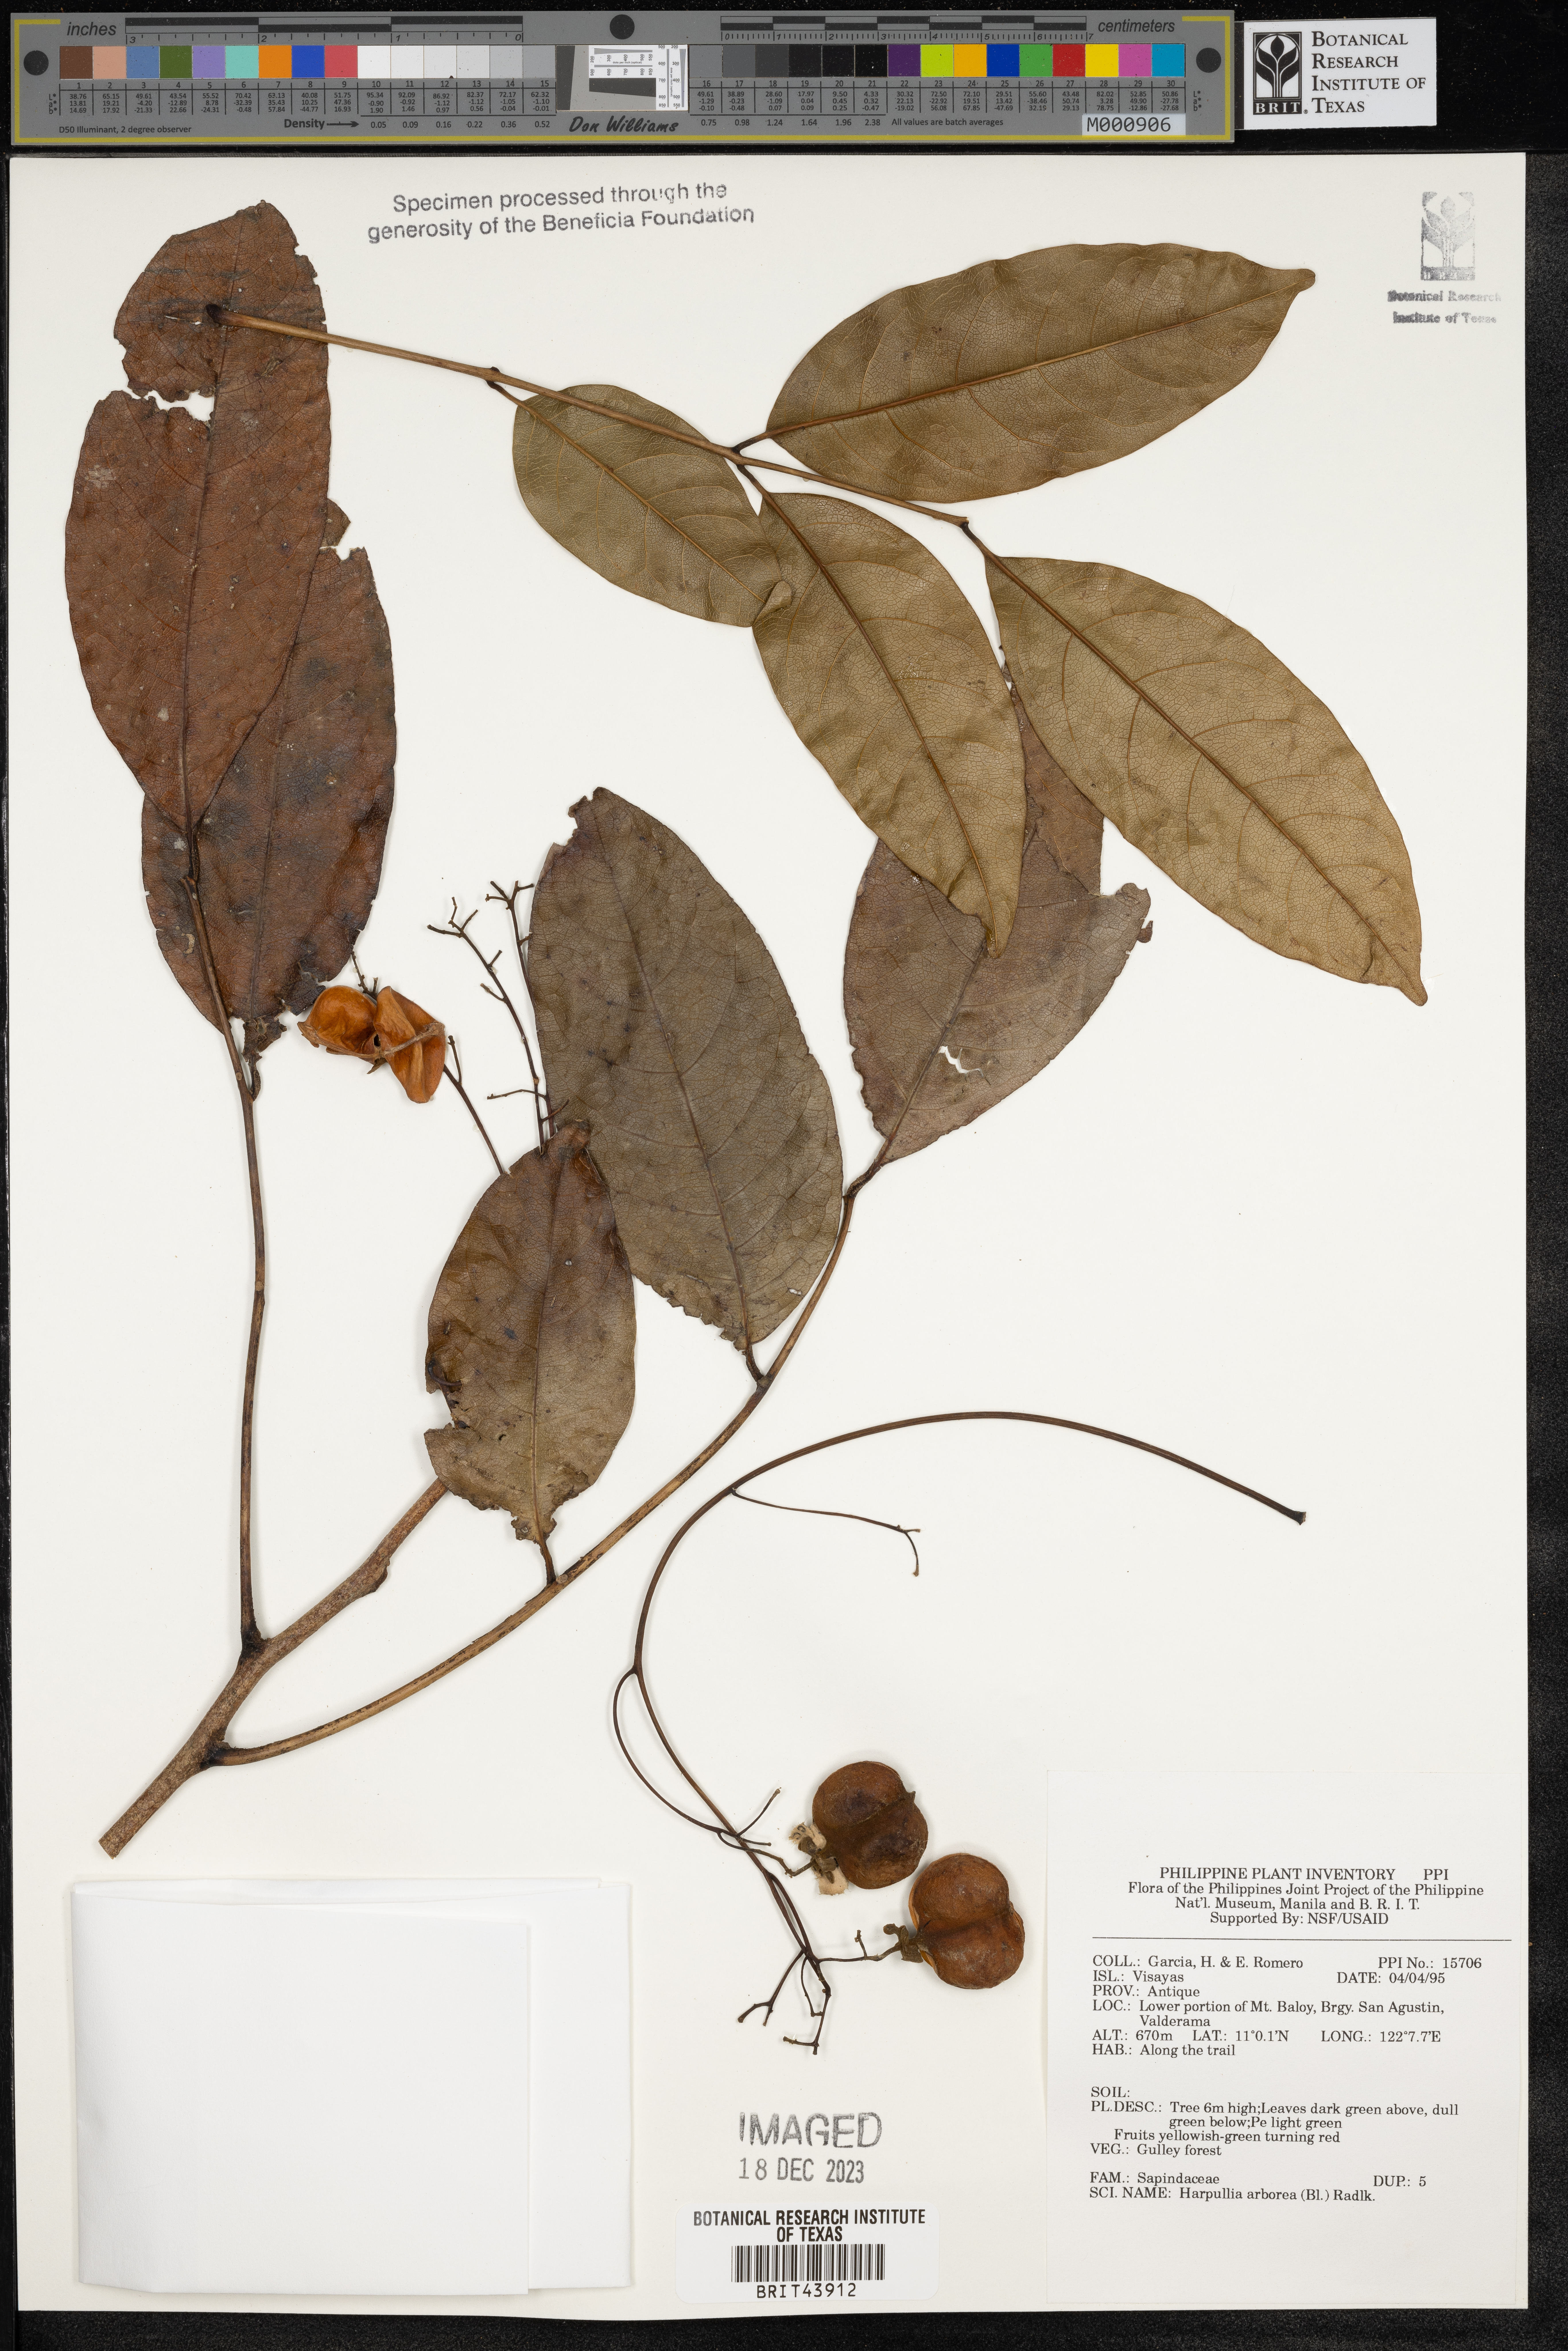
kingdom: Plantae
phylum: Tracheophyta
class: Magnoliopsida
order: Sapindales
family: Sapindaceae
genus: Harpullia
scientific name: Harpullia arborea
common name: Tulip-wood tree
